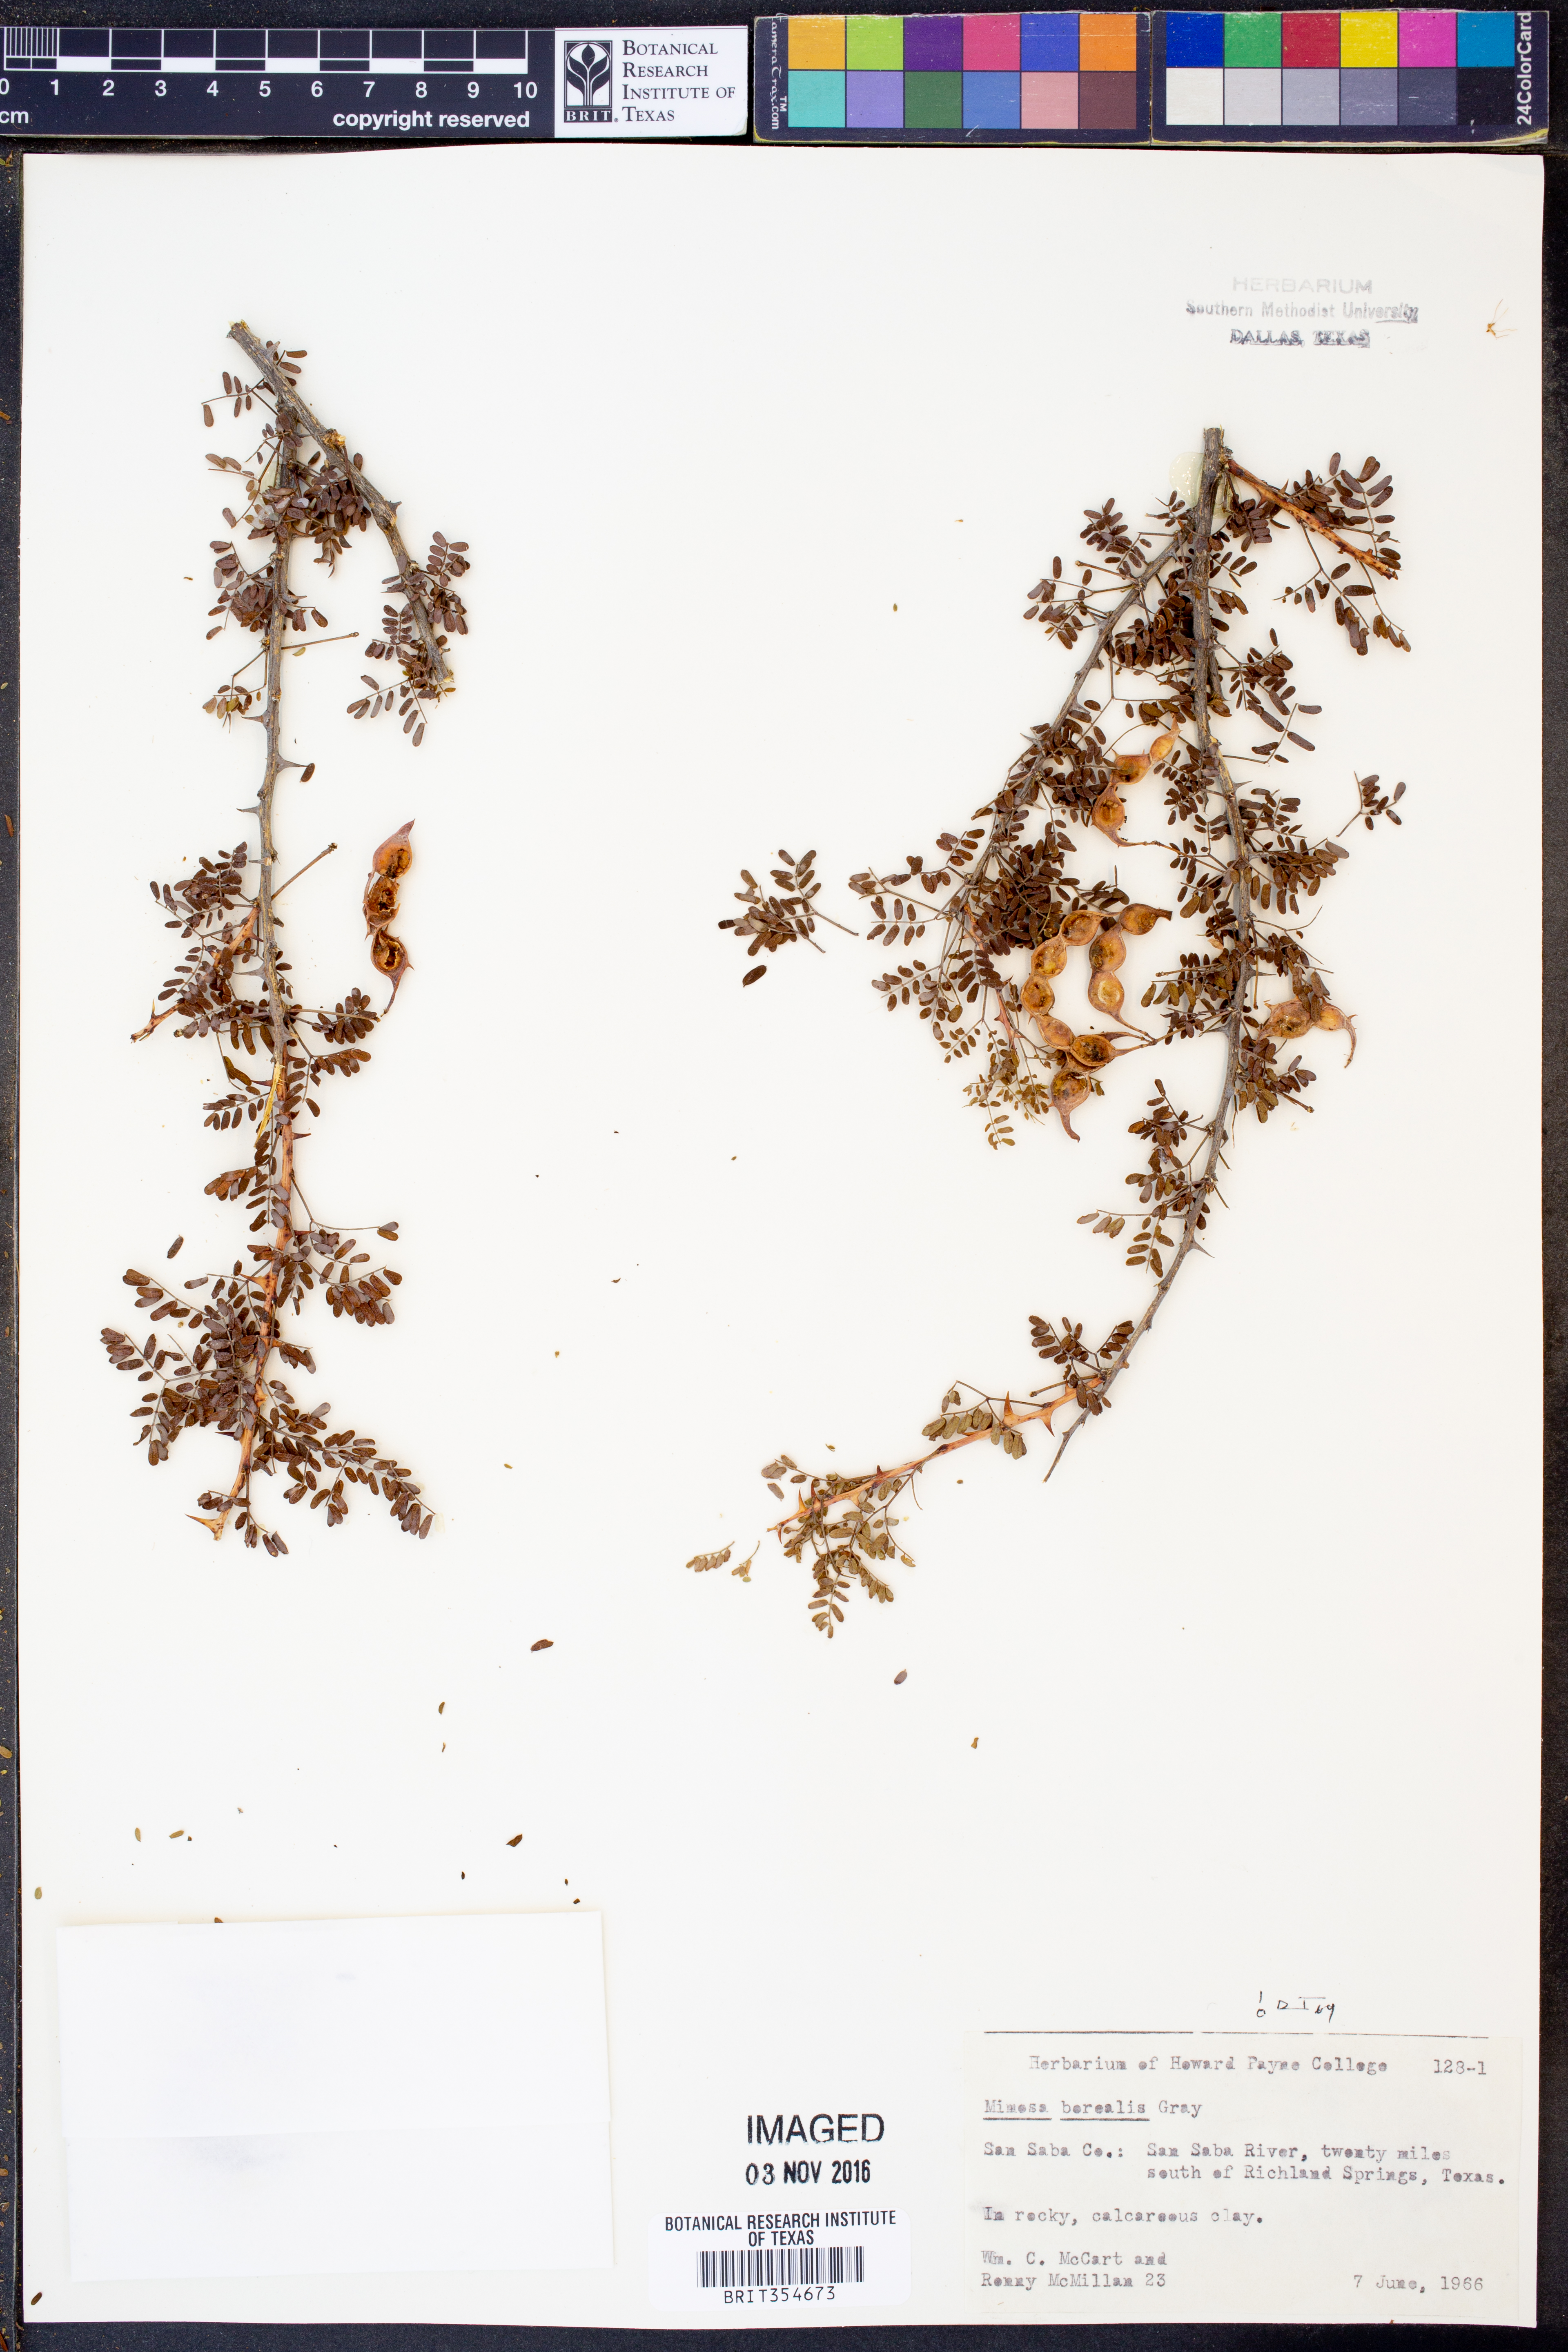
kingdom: Plantae
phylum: Tracheophyta
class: Magnoliopsida
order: Fabales
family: Fabaceae
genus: Mimosa
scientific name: Mimosa borealis
